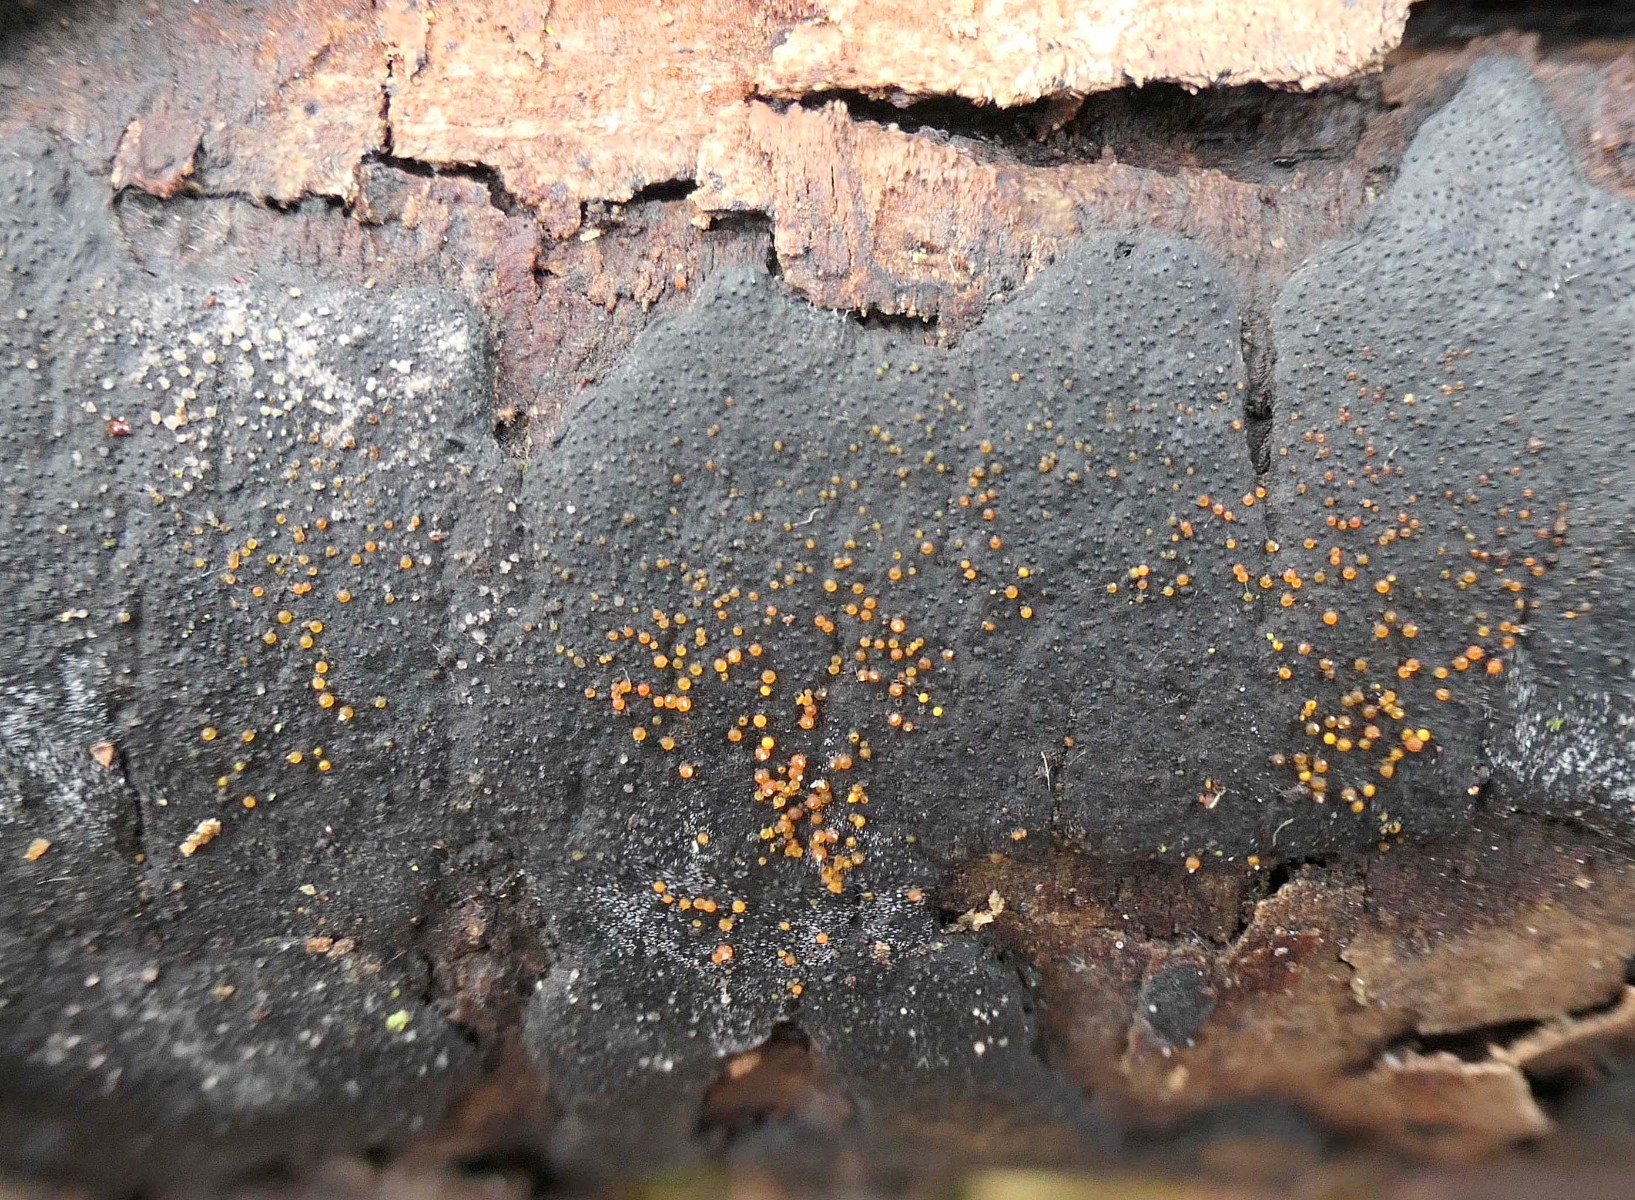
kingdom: Fungi
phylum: Ascomycota
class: Sordariomycetes
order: Hypocreales
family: Nectriaceae
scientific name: Nectriaceae
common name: cinnobersvampfamilien
